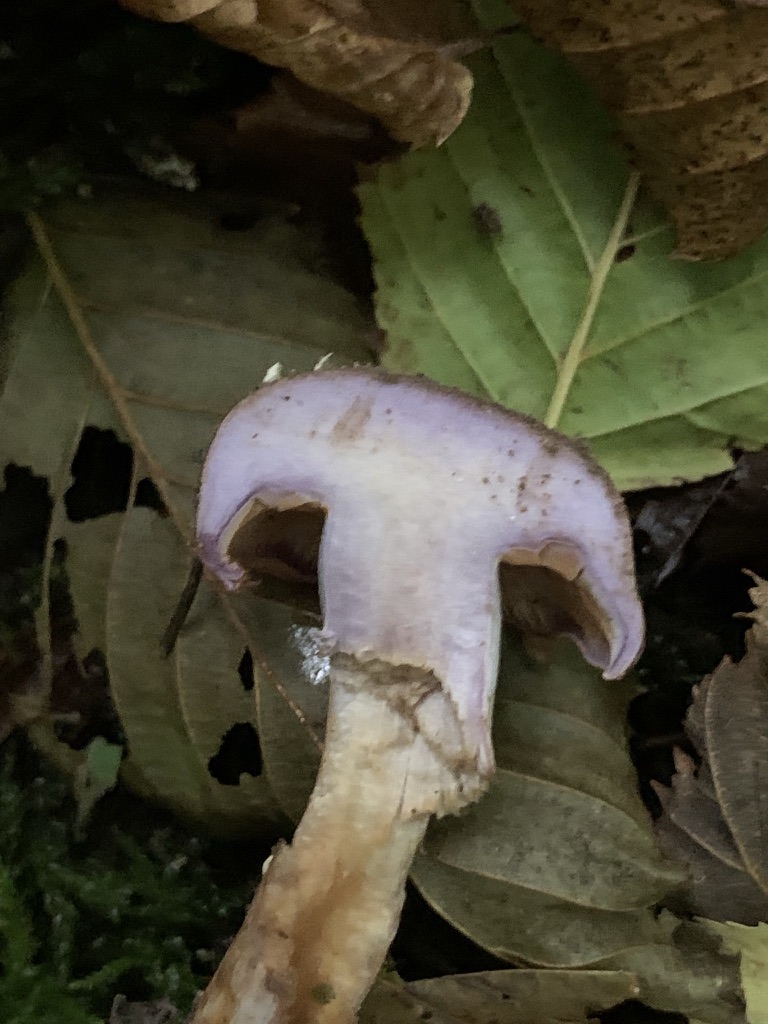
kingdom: Fungi
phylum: Basidiomycota
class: Agaricomycetes
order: Agaricales
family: Cortinariaceae
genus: Phlegmacium
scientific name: Phlegmacium pseudodaulnoyae
